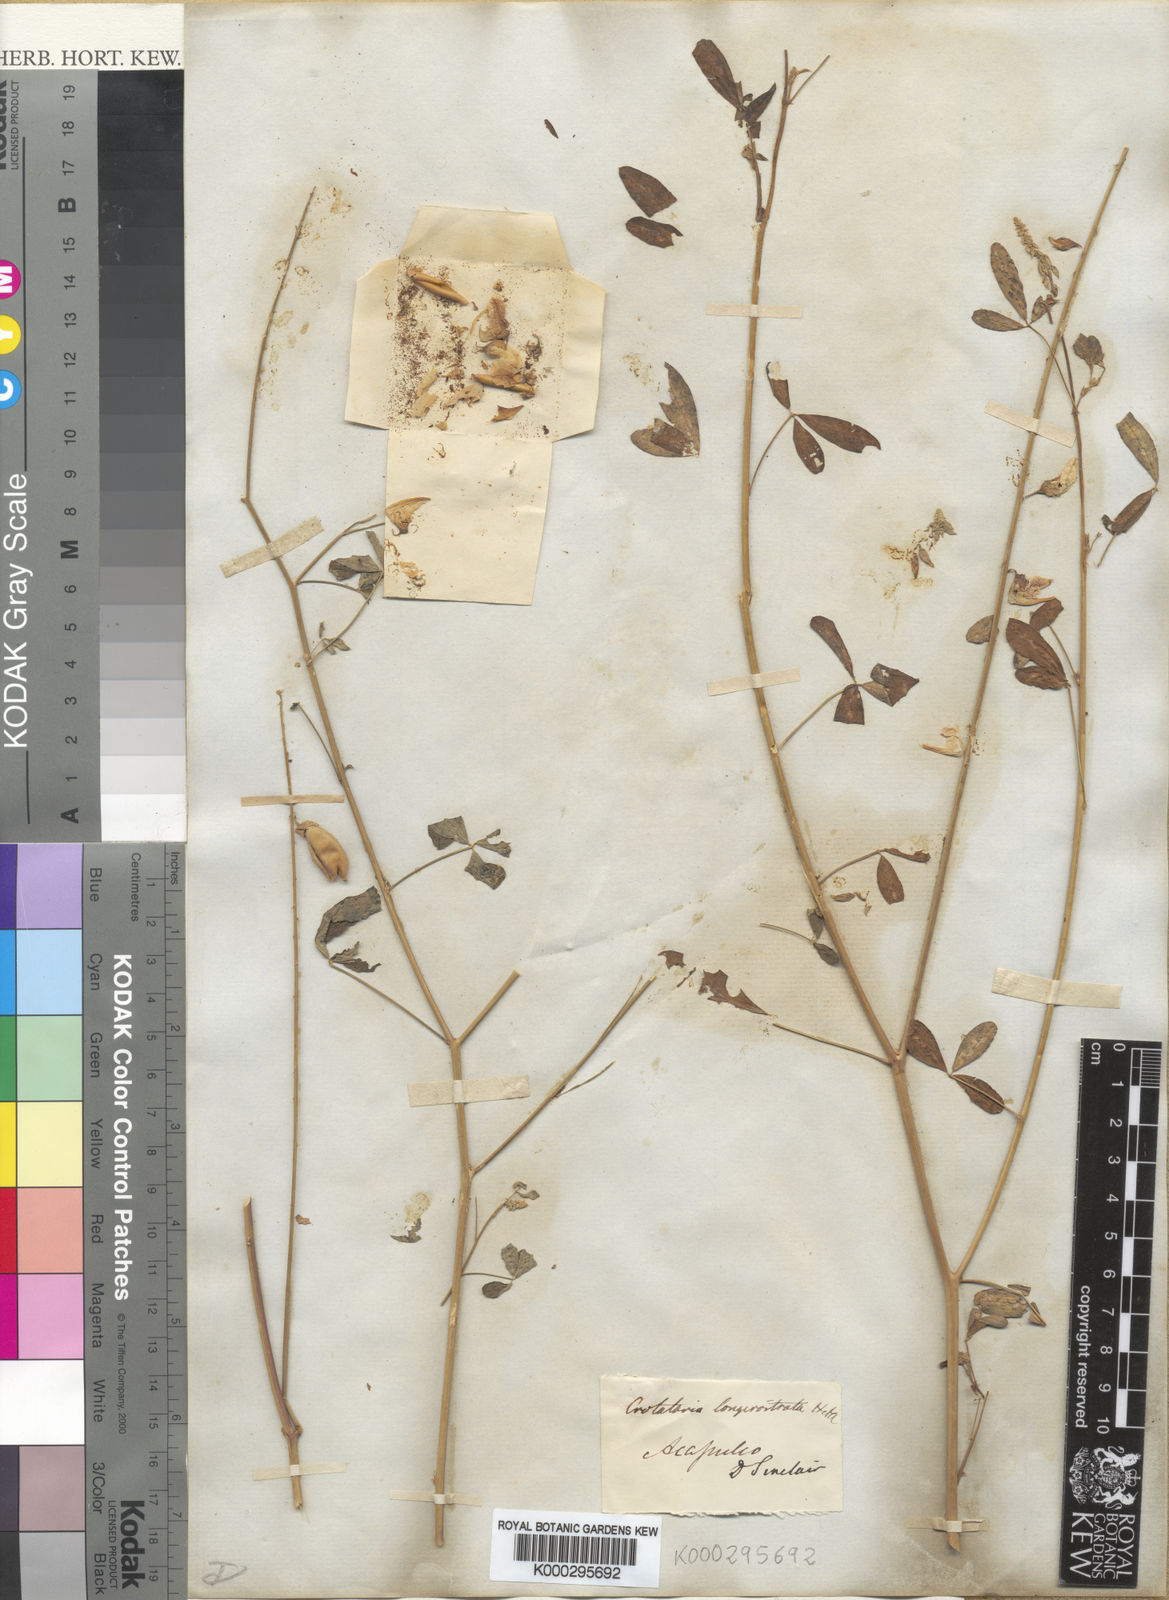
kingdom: Plantae
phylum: Tracheophyta
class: Magnoliopsida
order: Fabales
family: Fabaceae
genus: Crotalaria
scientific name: Crotalaria longirostrata
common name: Longbeak rattlebox
